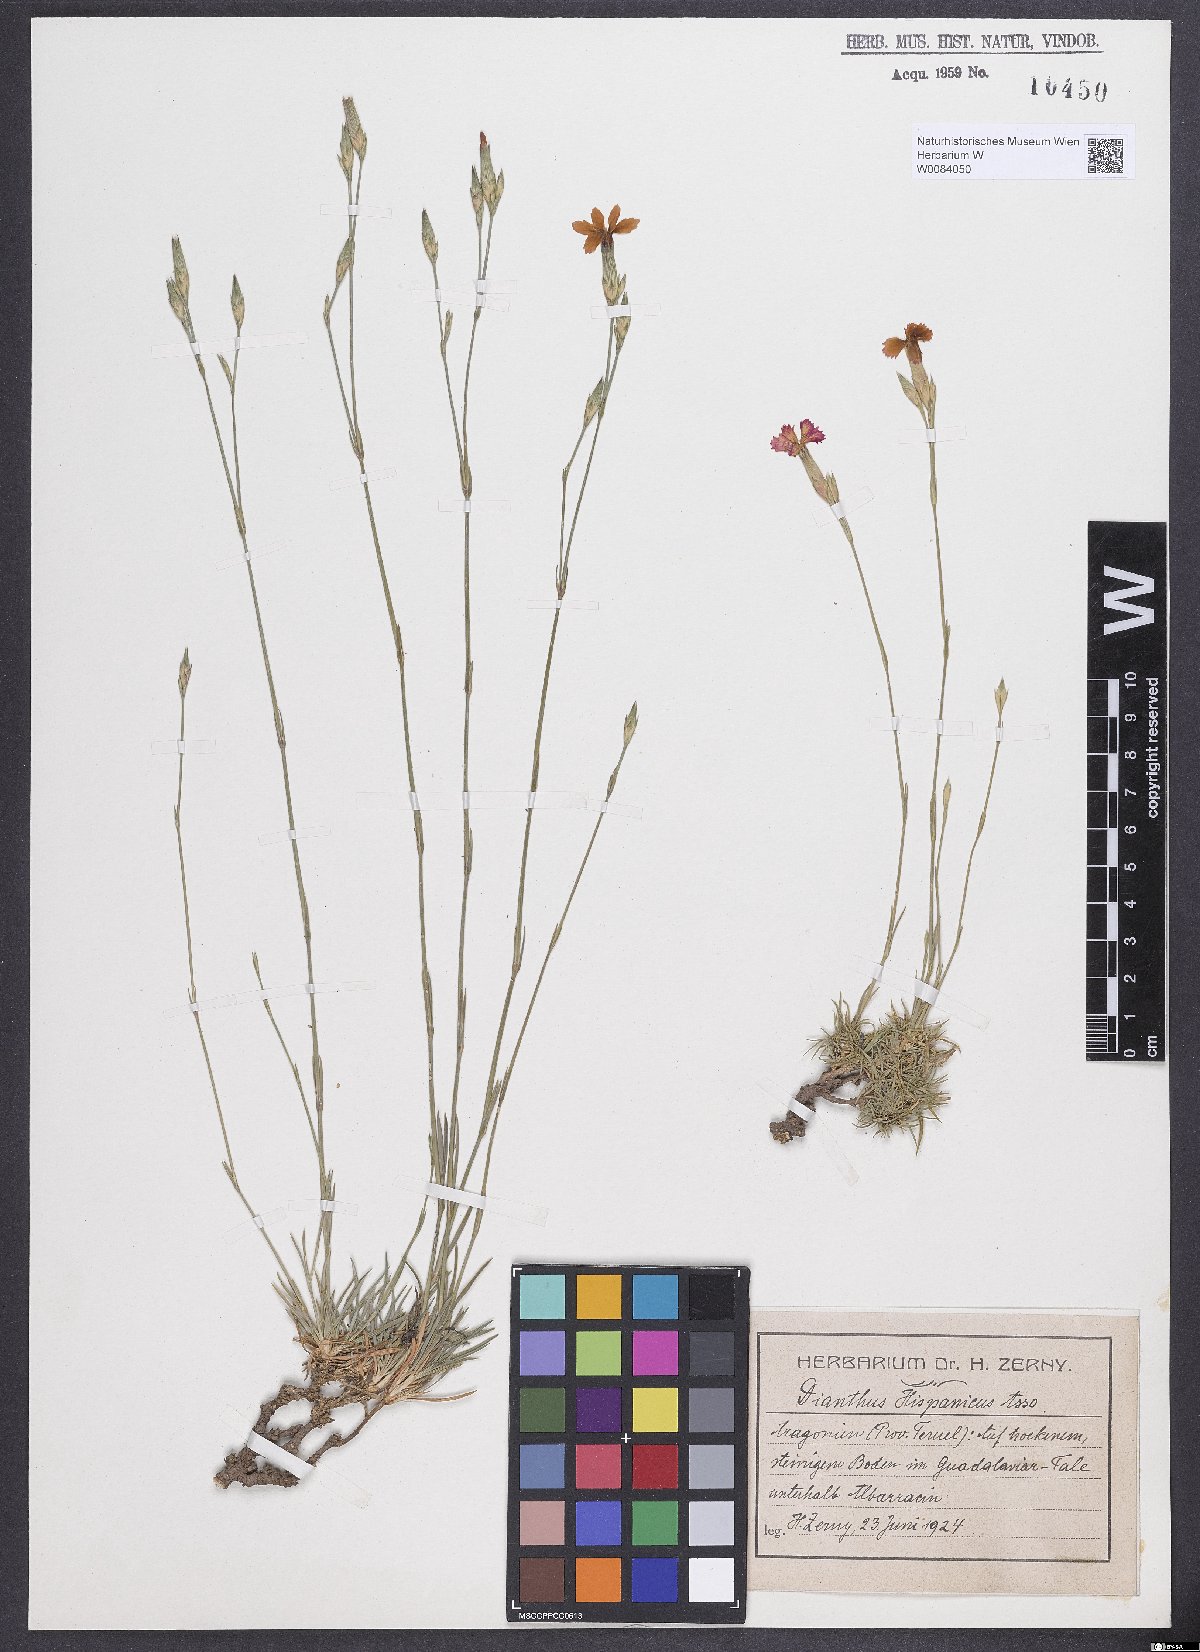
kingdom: Plantae
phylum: Tracheophyta
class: Magnoliopsida
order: Caryophyllales
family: Caryophyllaceae
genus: Dianthus
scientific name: Dianthus pungens
